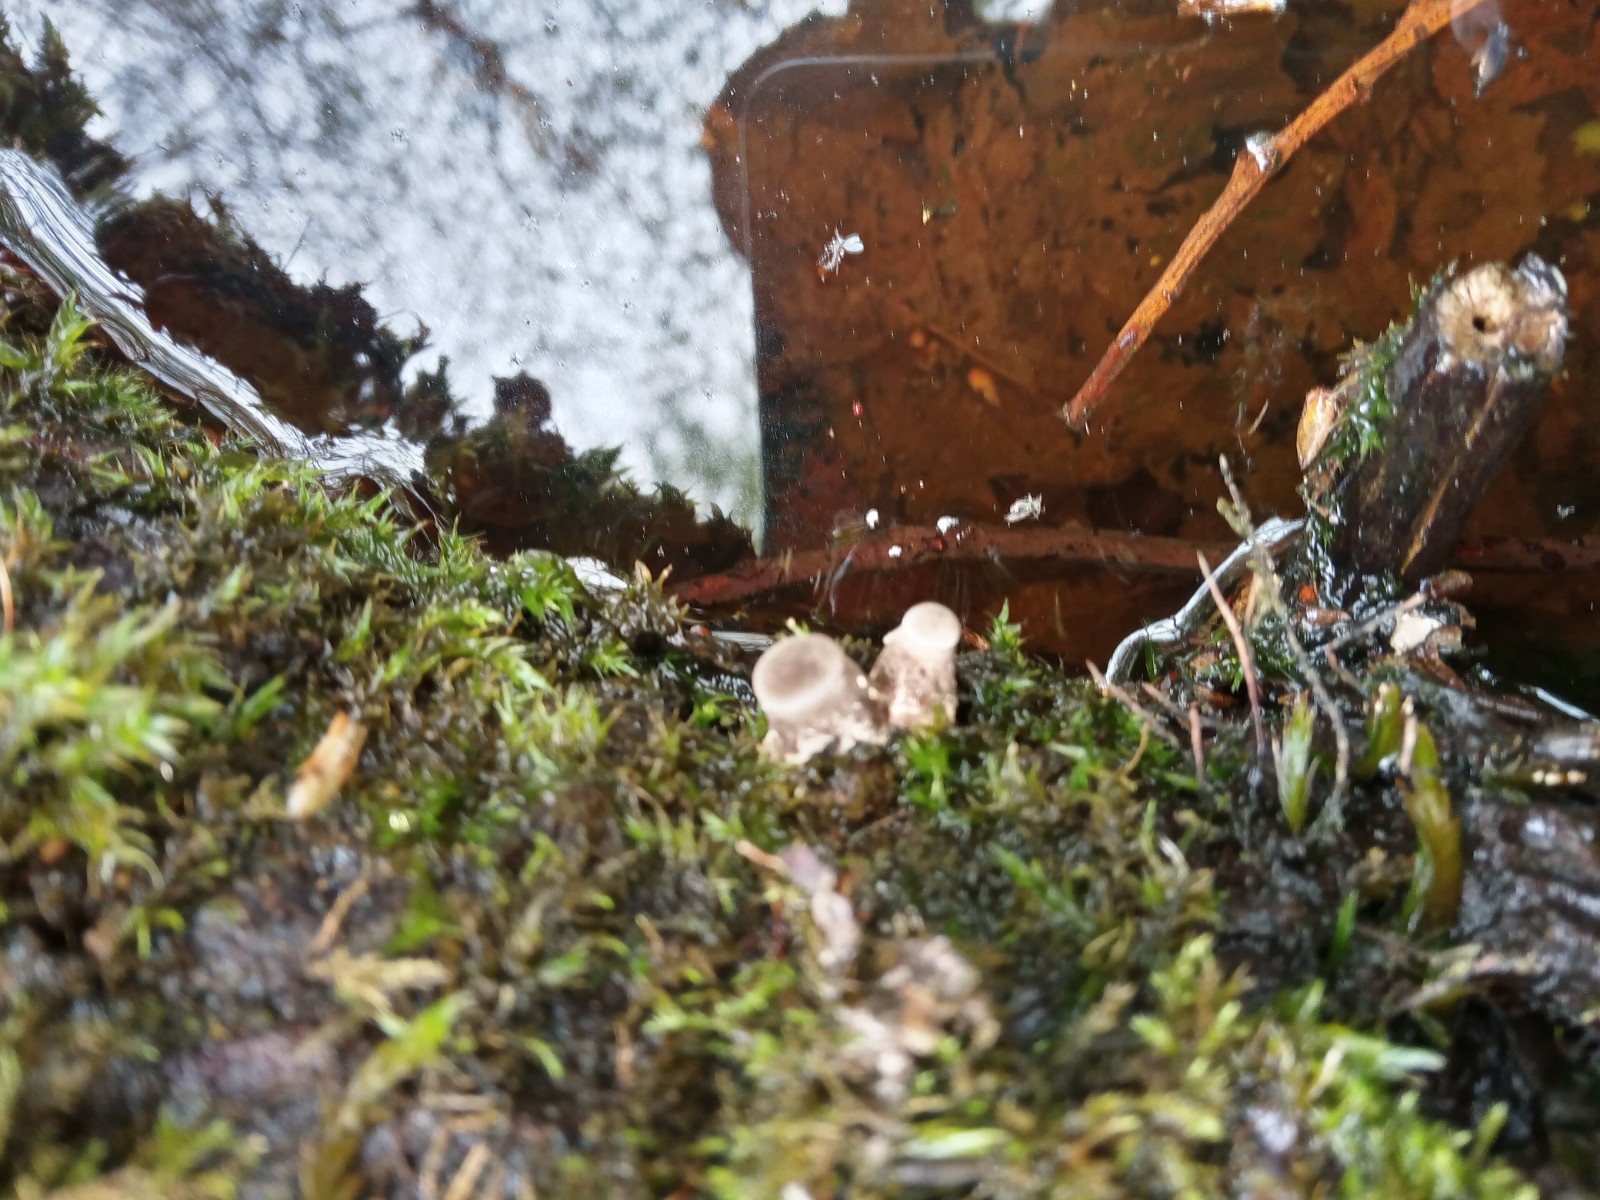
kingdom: Fungi
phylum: Basidiomycota
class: Agaricomycetes
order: Polyporales
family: Polyporaceae
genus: Lentinus
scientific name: Lentinus tigrinus
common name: tigerhat
